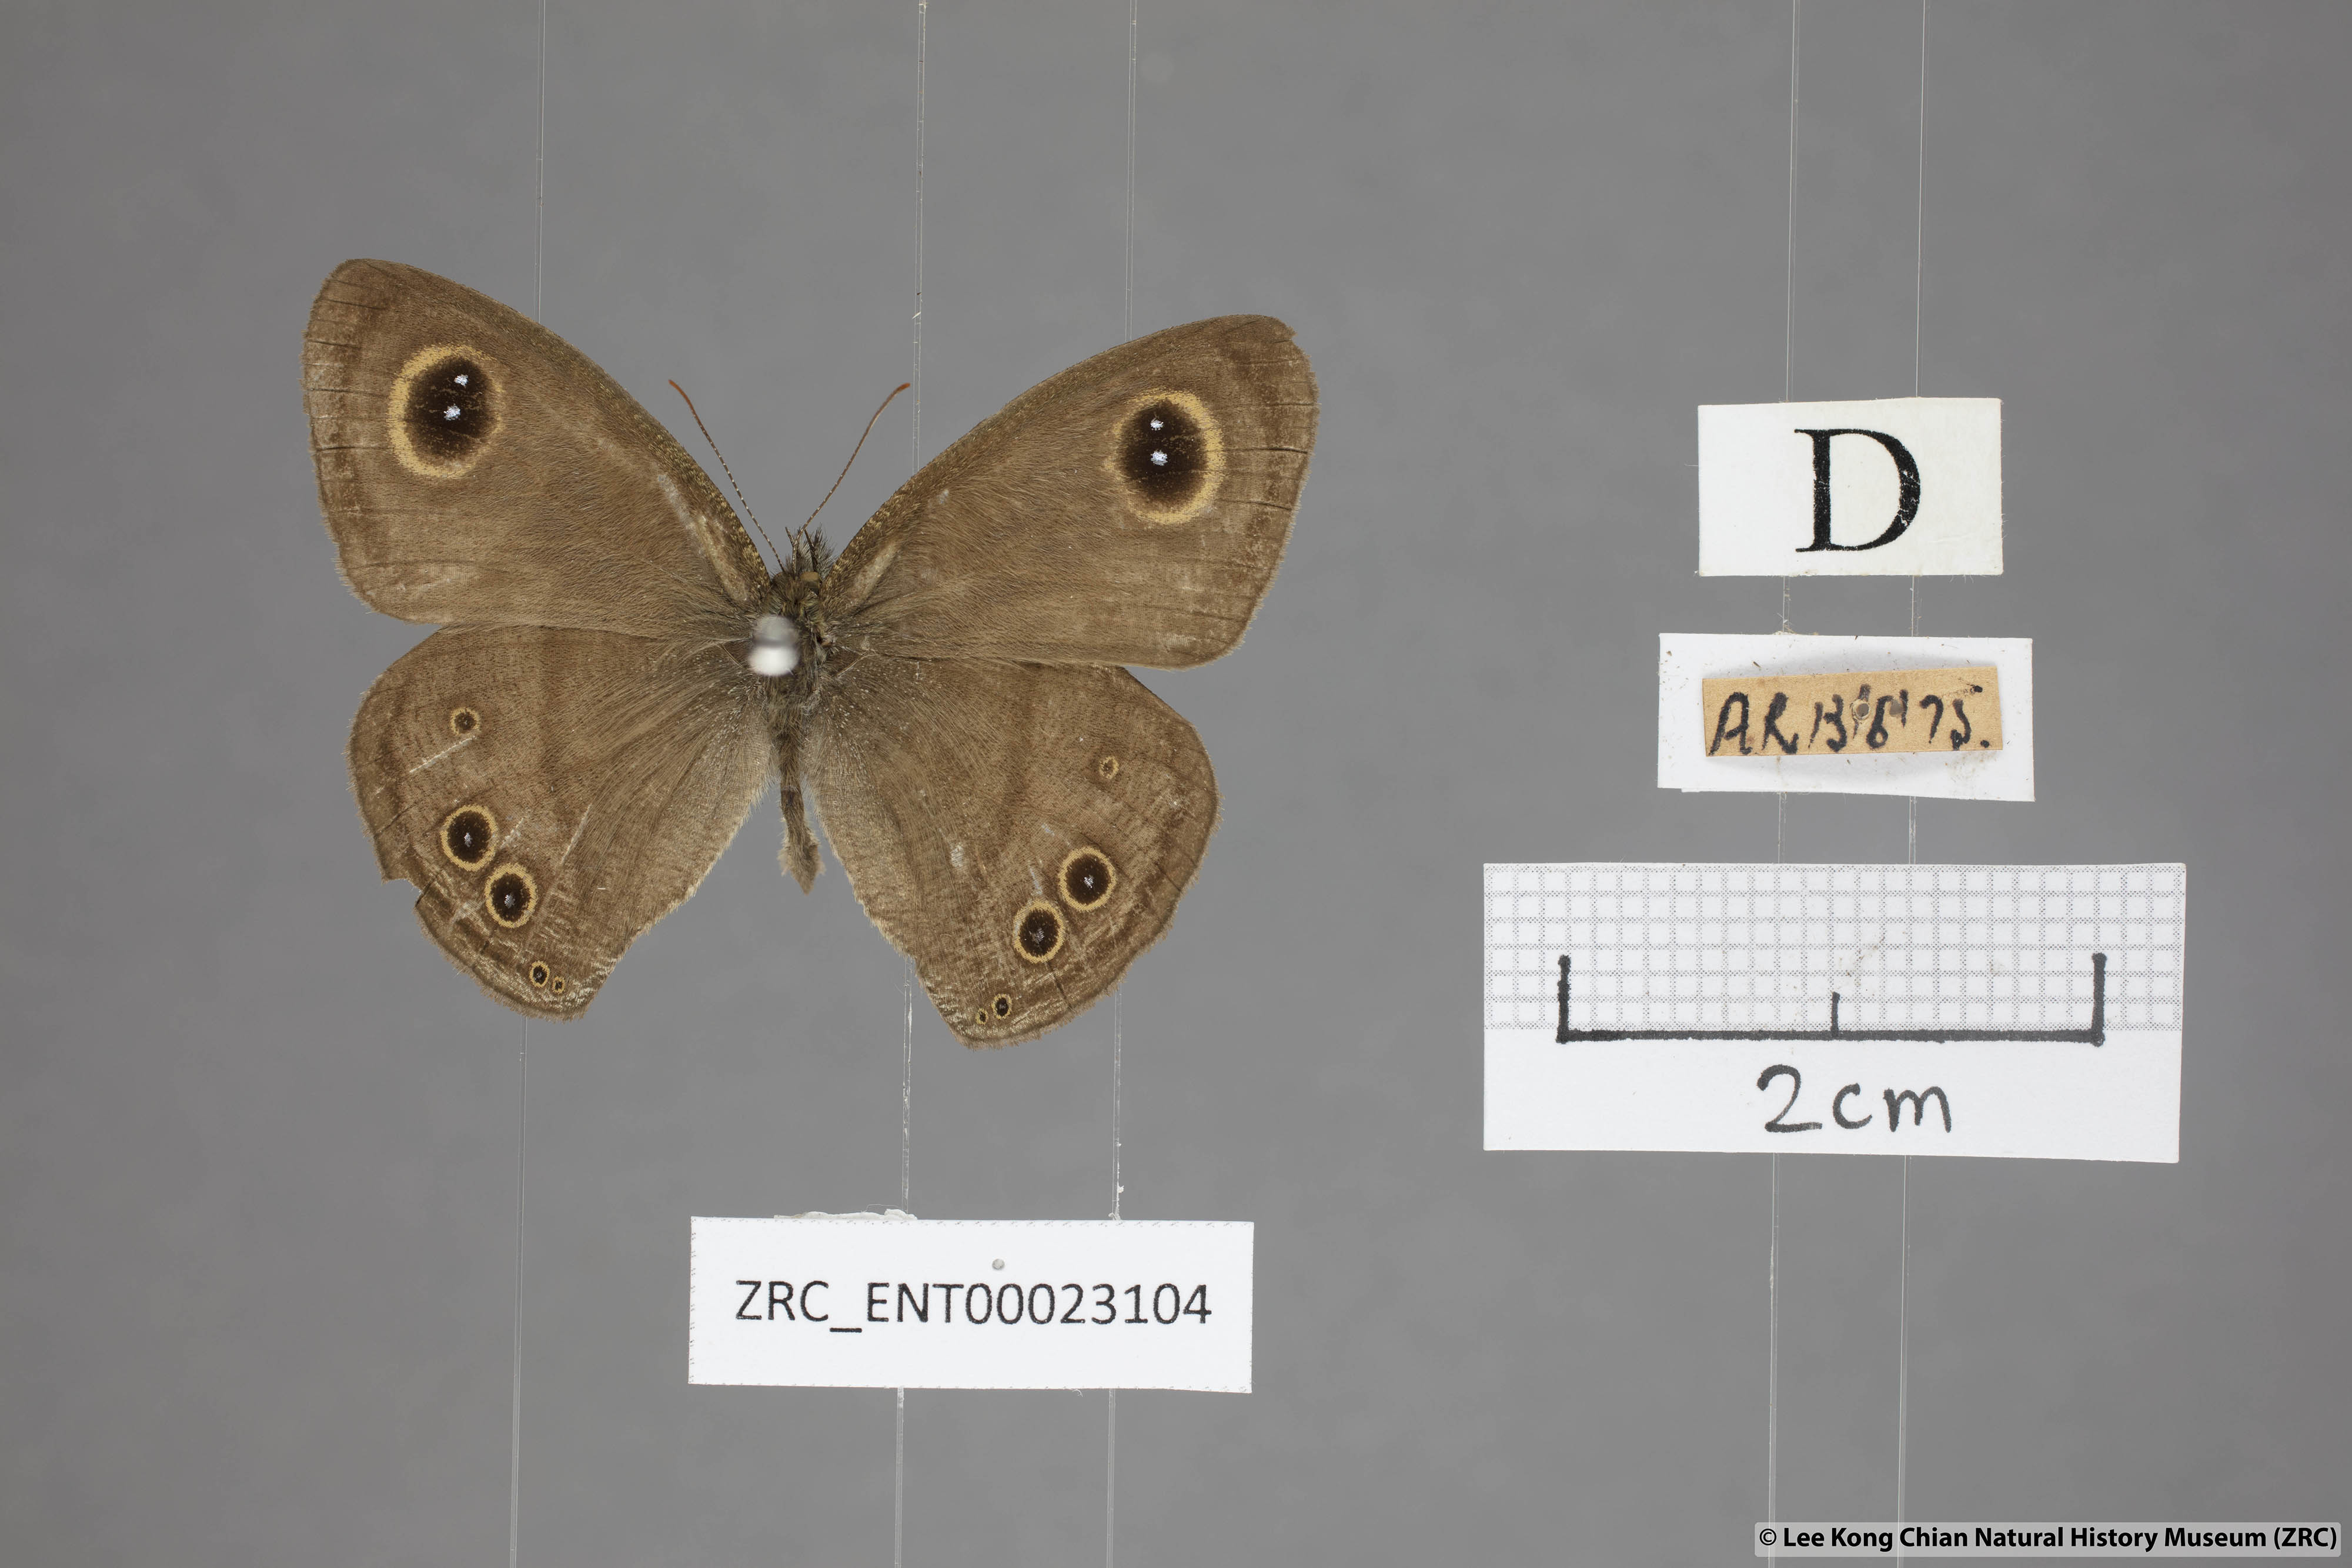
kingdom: Animalia
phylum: Arthropoda
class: Insecta
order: Lepidoptera
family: Nymphalidae
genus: Ypthima
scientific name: Ypthima baldus
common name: Common five-ring
